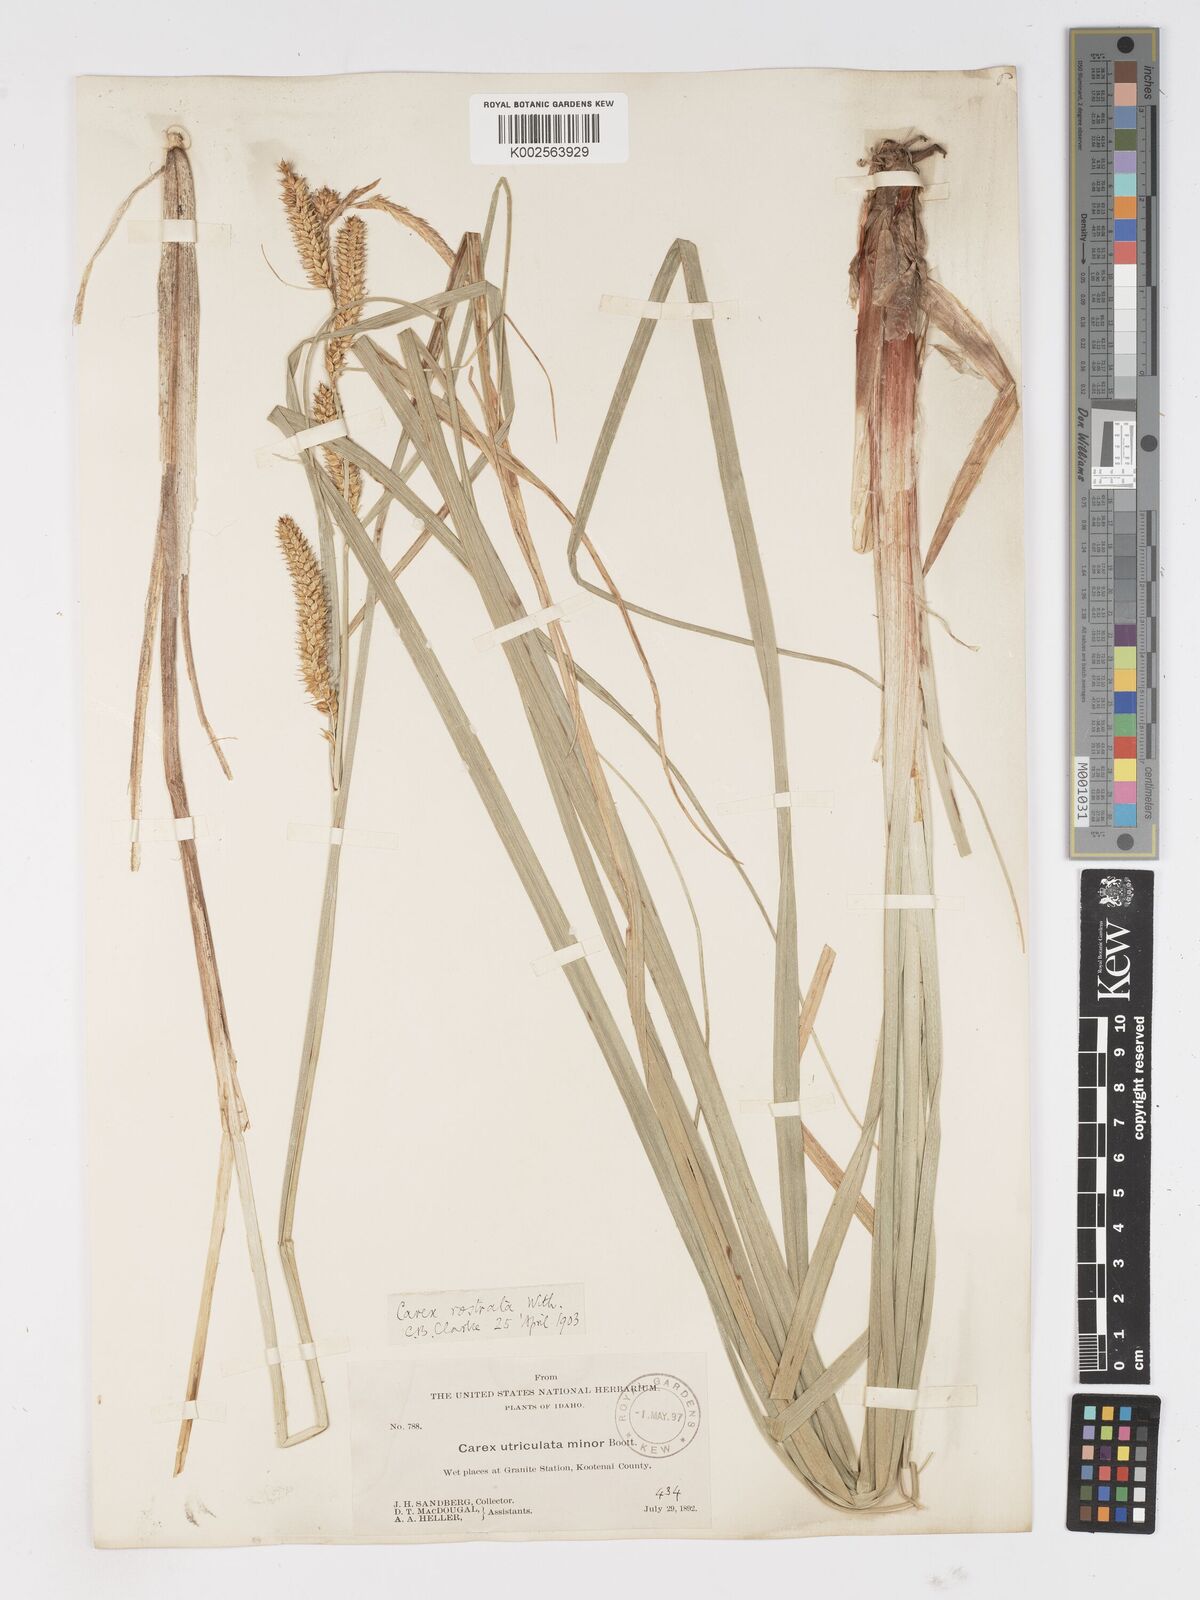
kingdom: Plantae
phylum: Tracheophyta
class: Liliopsida
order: Poales
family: Cyperaceae
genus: Carex
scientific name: Carex rostrata
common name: Bottle sedge
